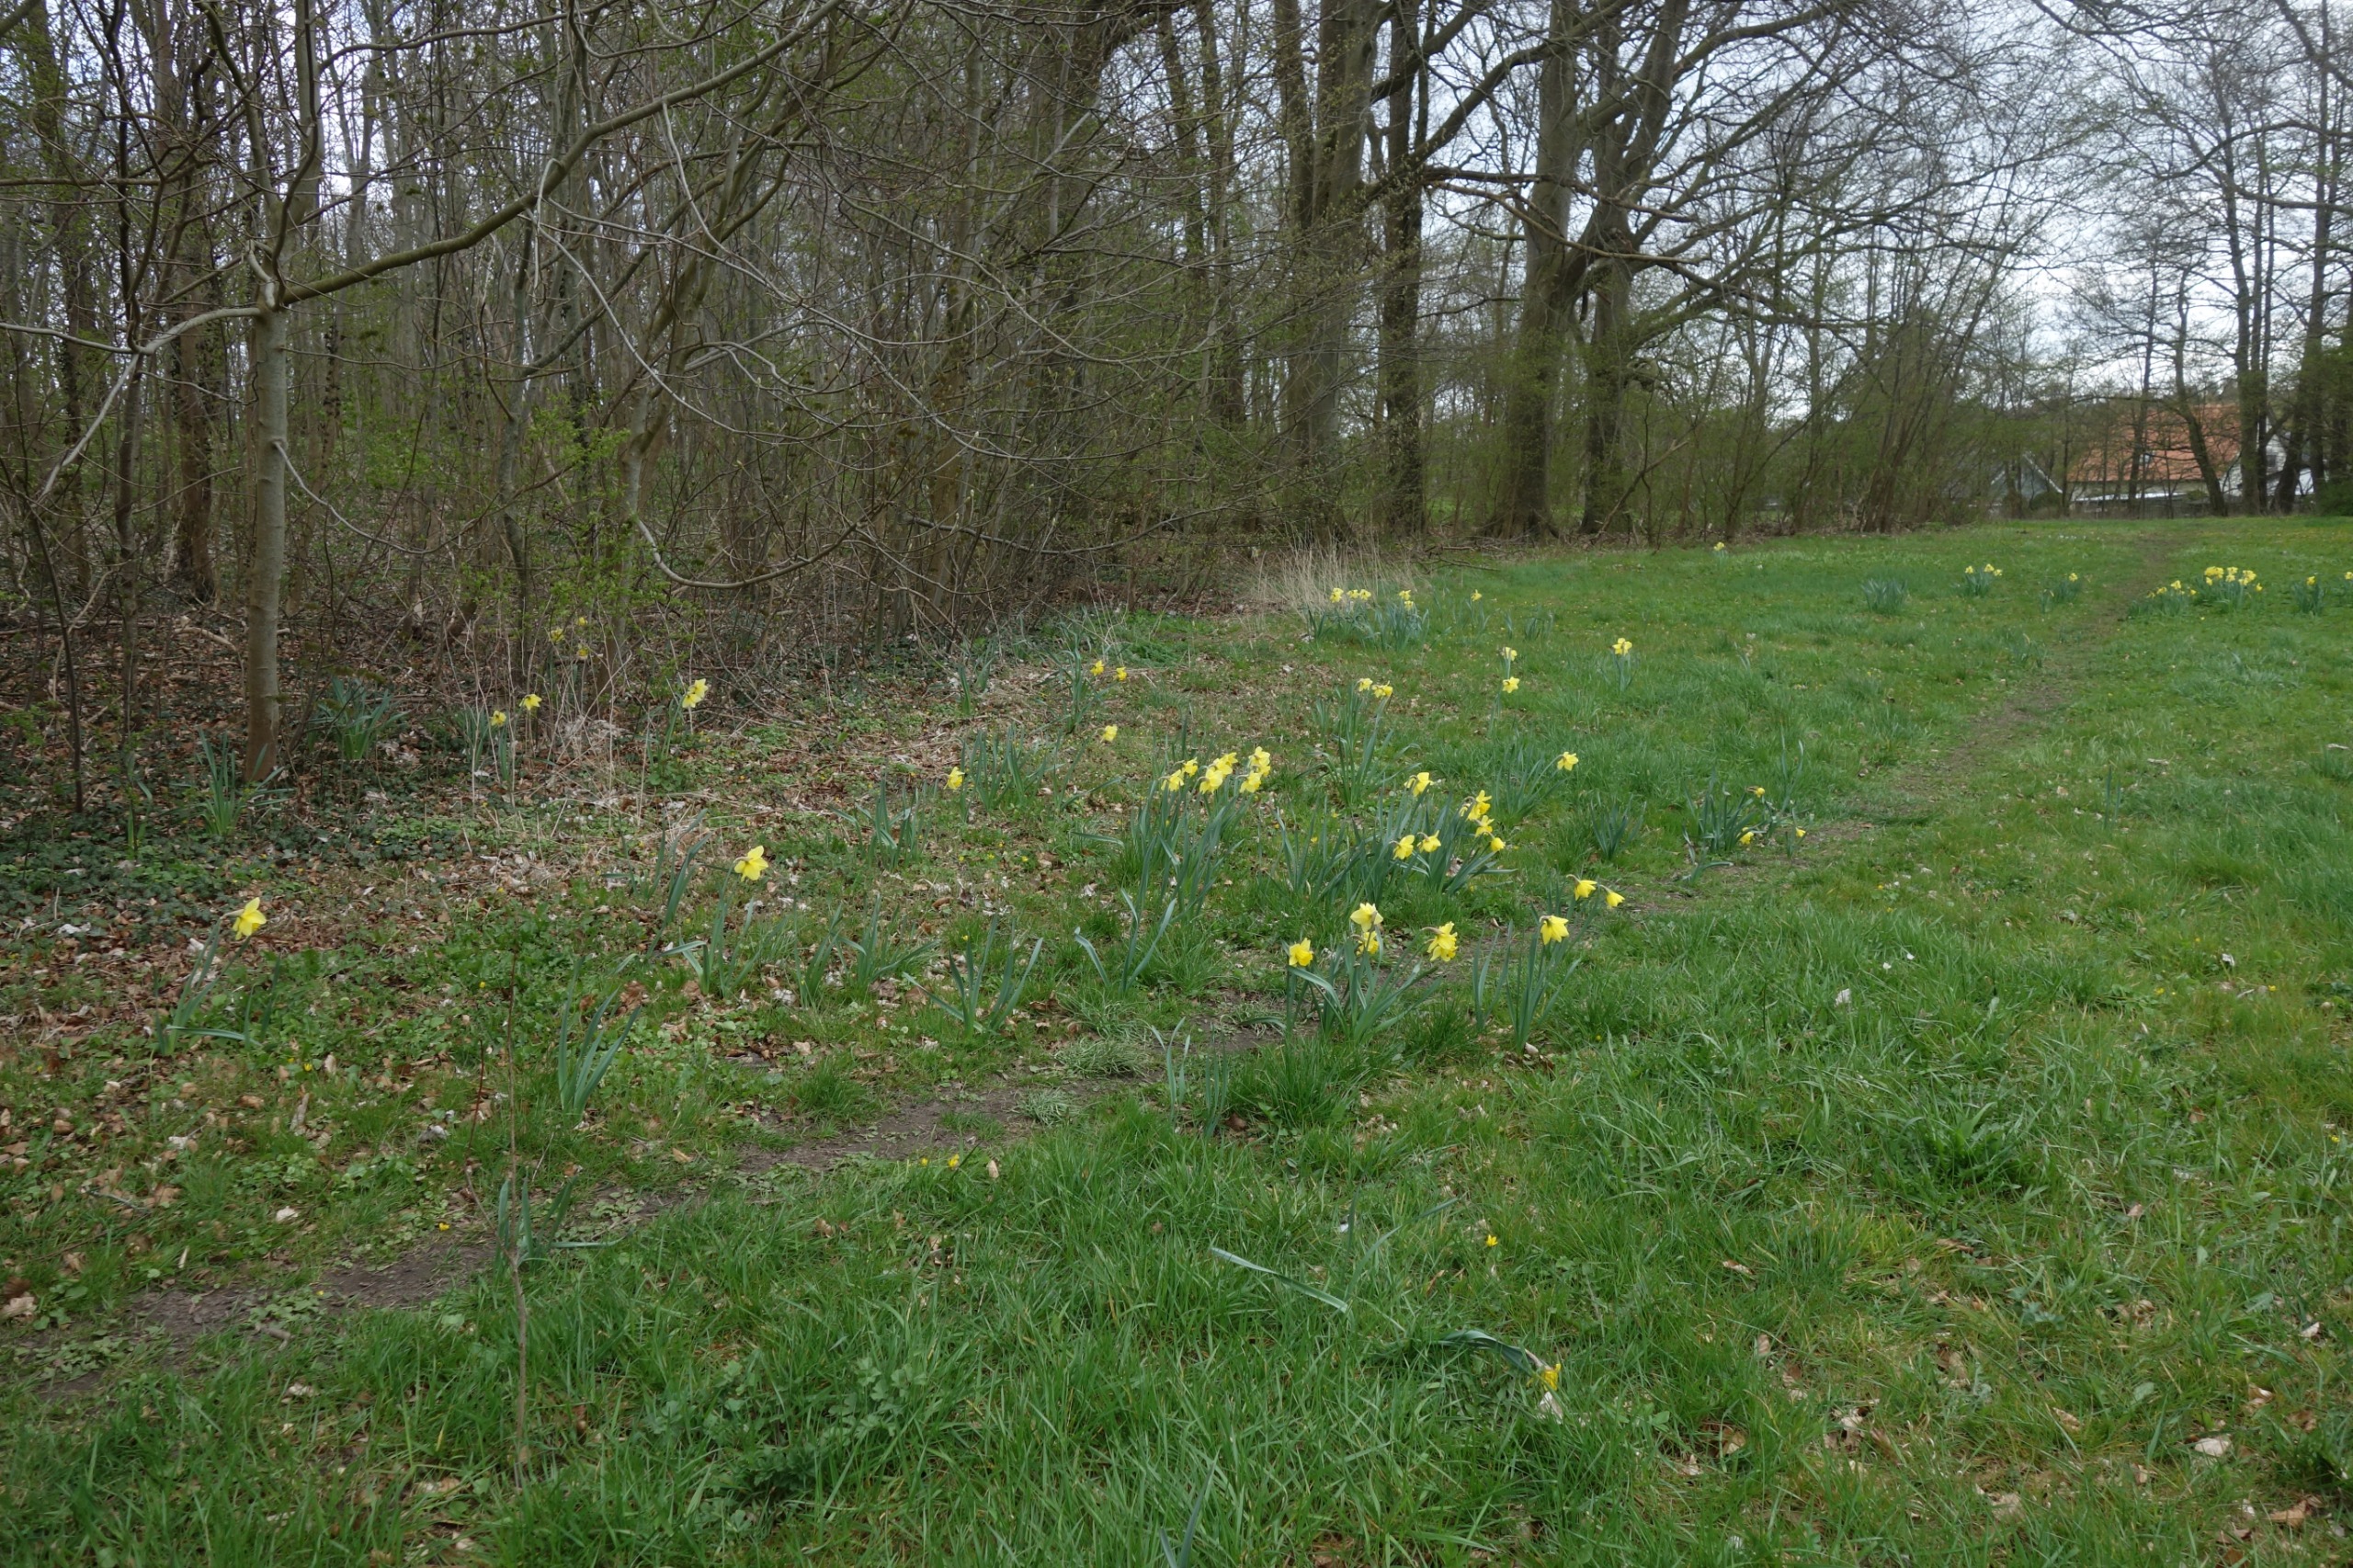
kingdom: Plantae
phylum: Tracheophyta
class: Liliopsida
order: Asparagales
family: Amaryllidaceae
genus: Narcissus
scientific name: Narcissus pseudonarcissus
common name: Påskelilje
